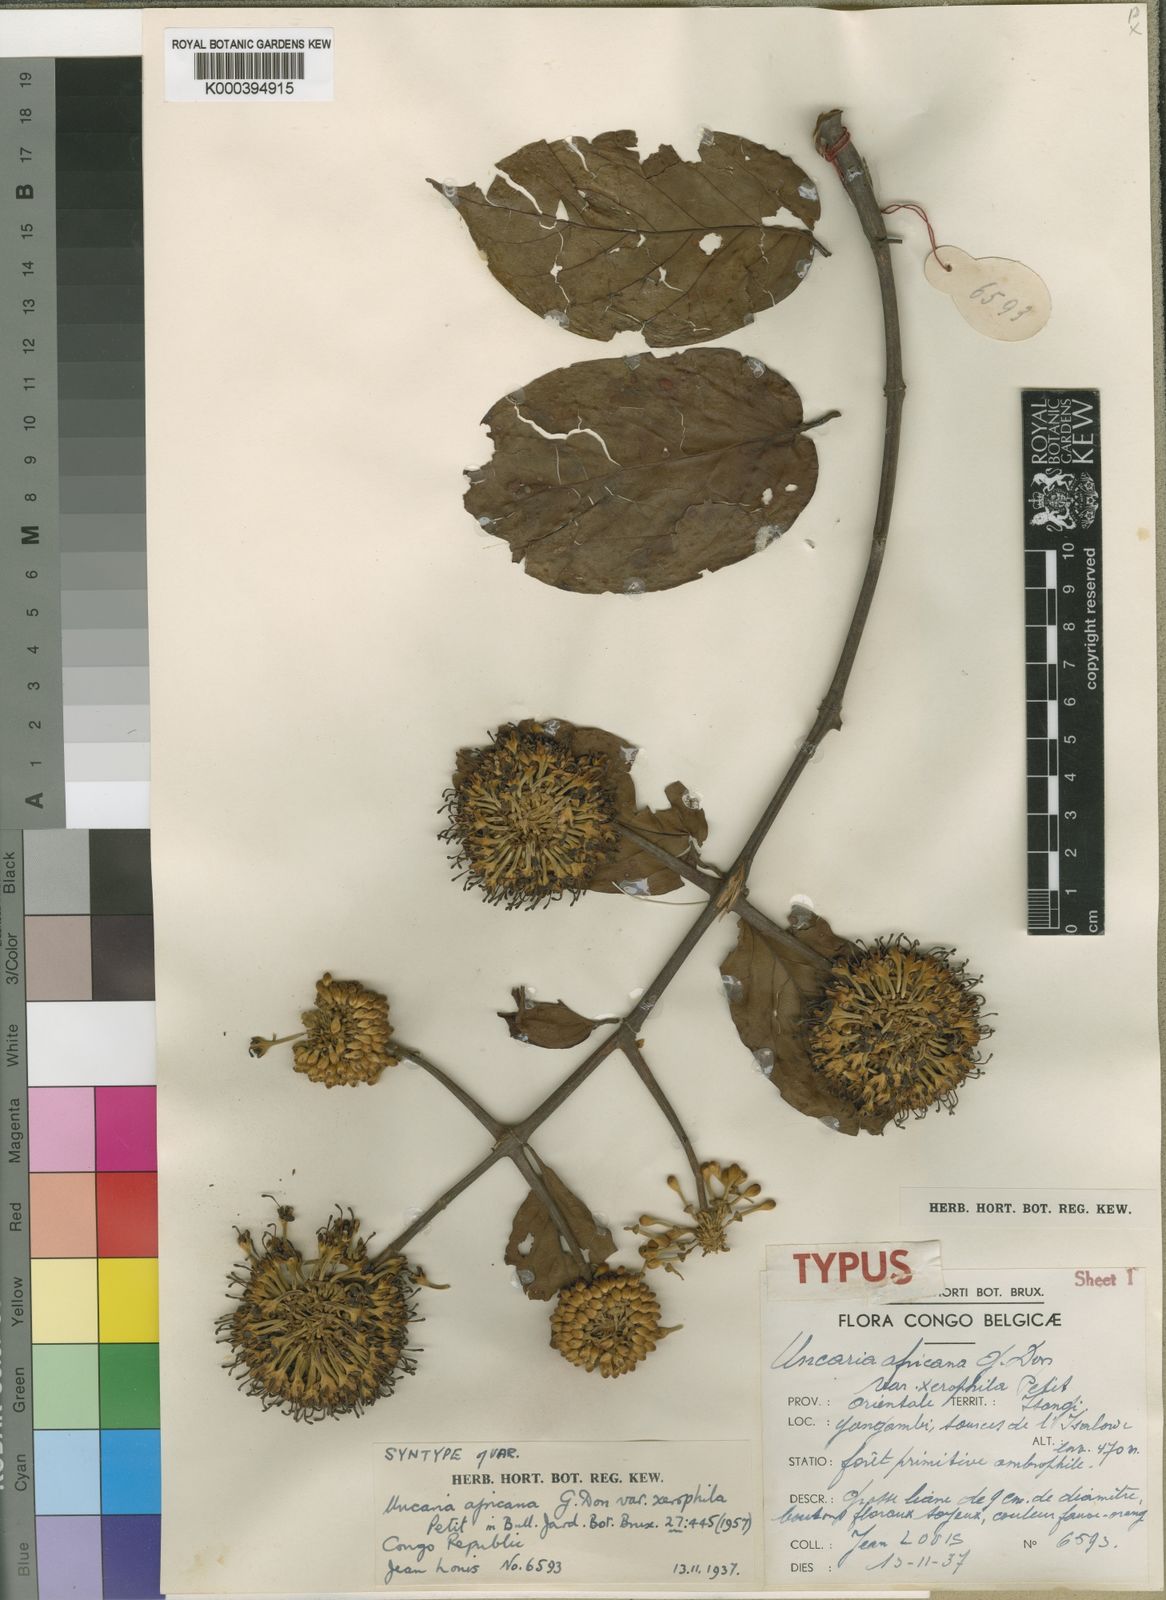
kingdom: Plantae
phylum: Tracheophyta
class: Magnoliopsida
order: Gentianales
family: Rubiaceae
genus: Uncaria
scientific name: Uncaria africana
